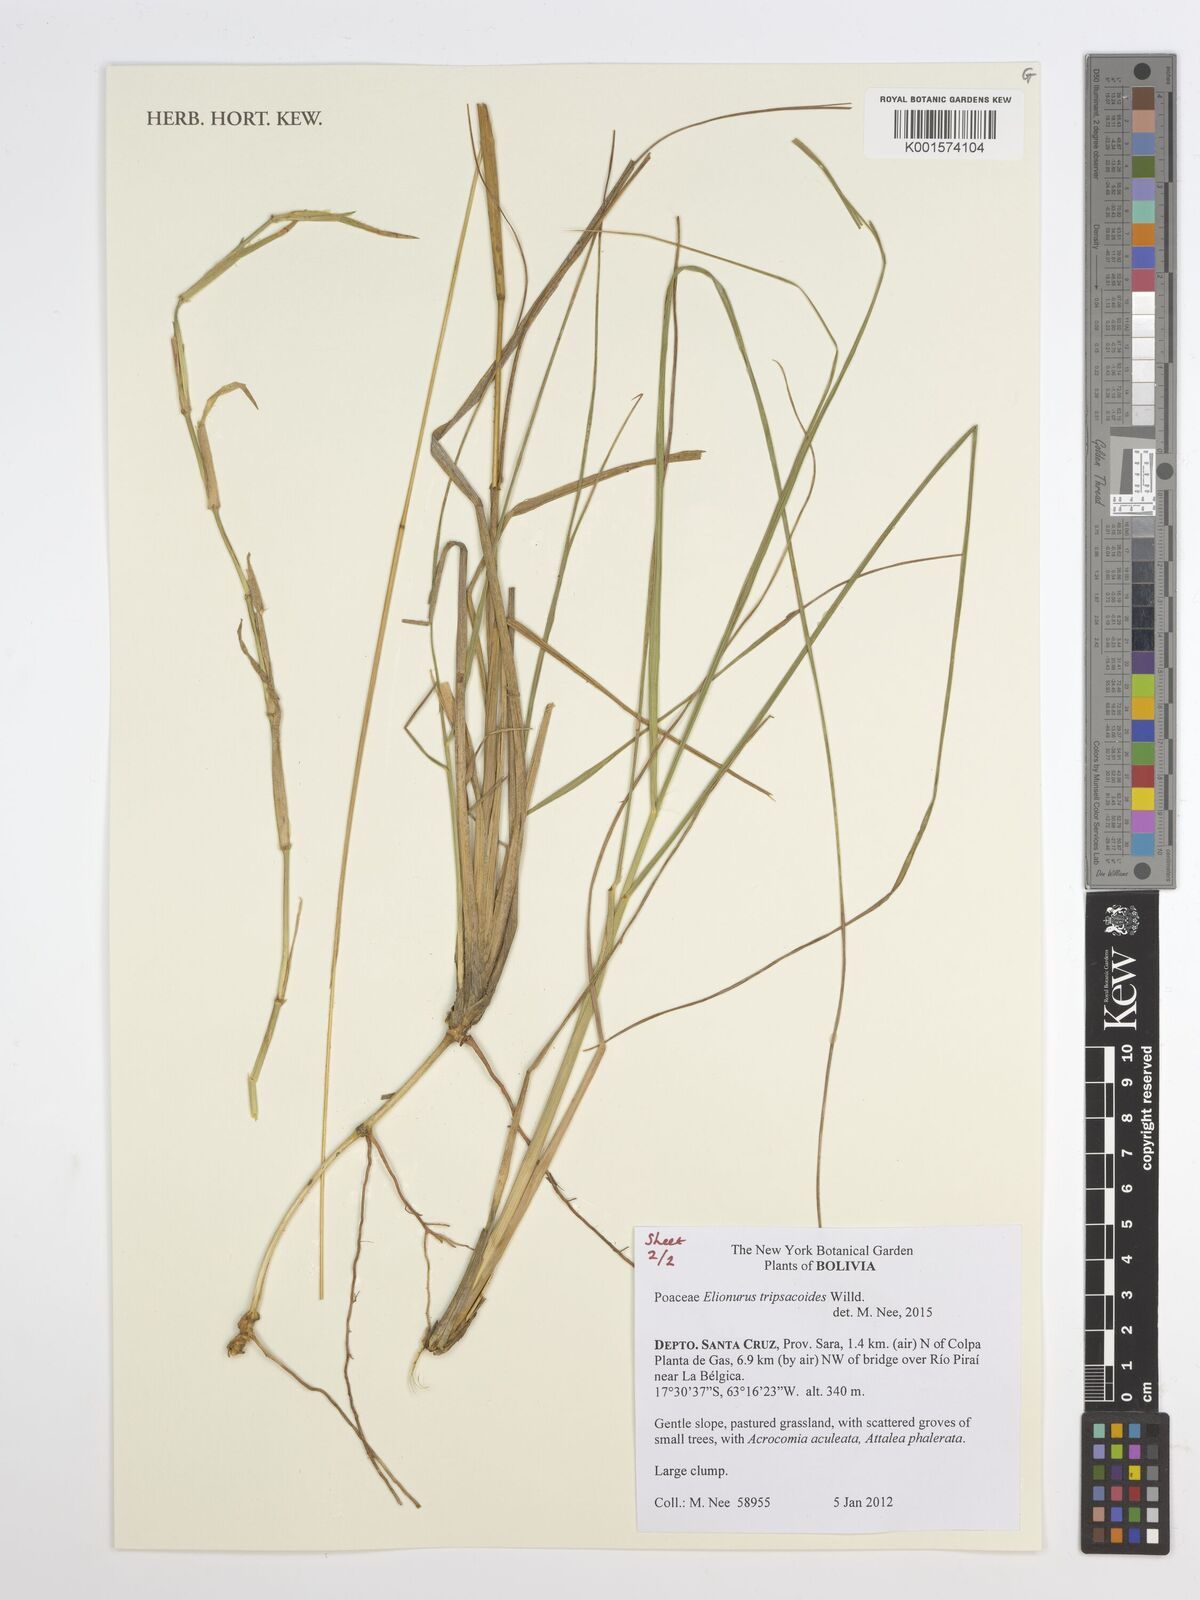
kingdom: Plantae
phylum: Tracheophyta
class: Liliopsida
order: Poales
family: Poaceae
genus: Elionurus
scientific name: Elionurus tripsacoides
